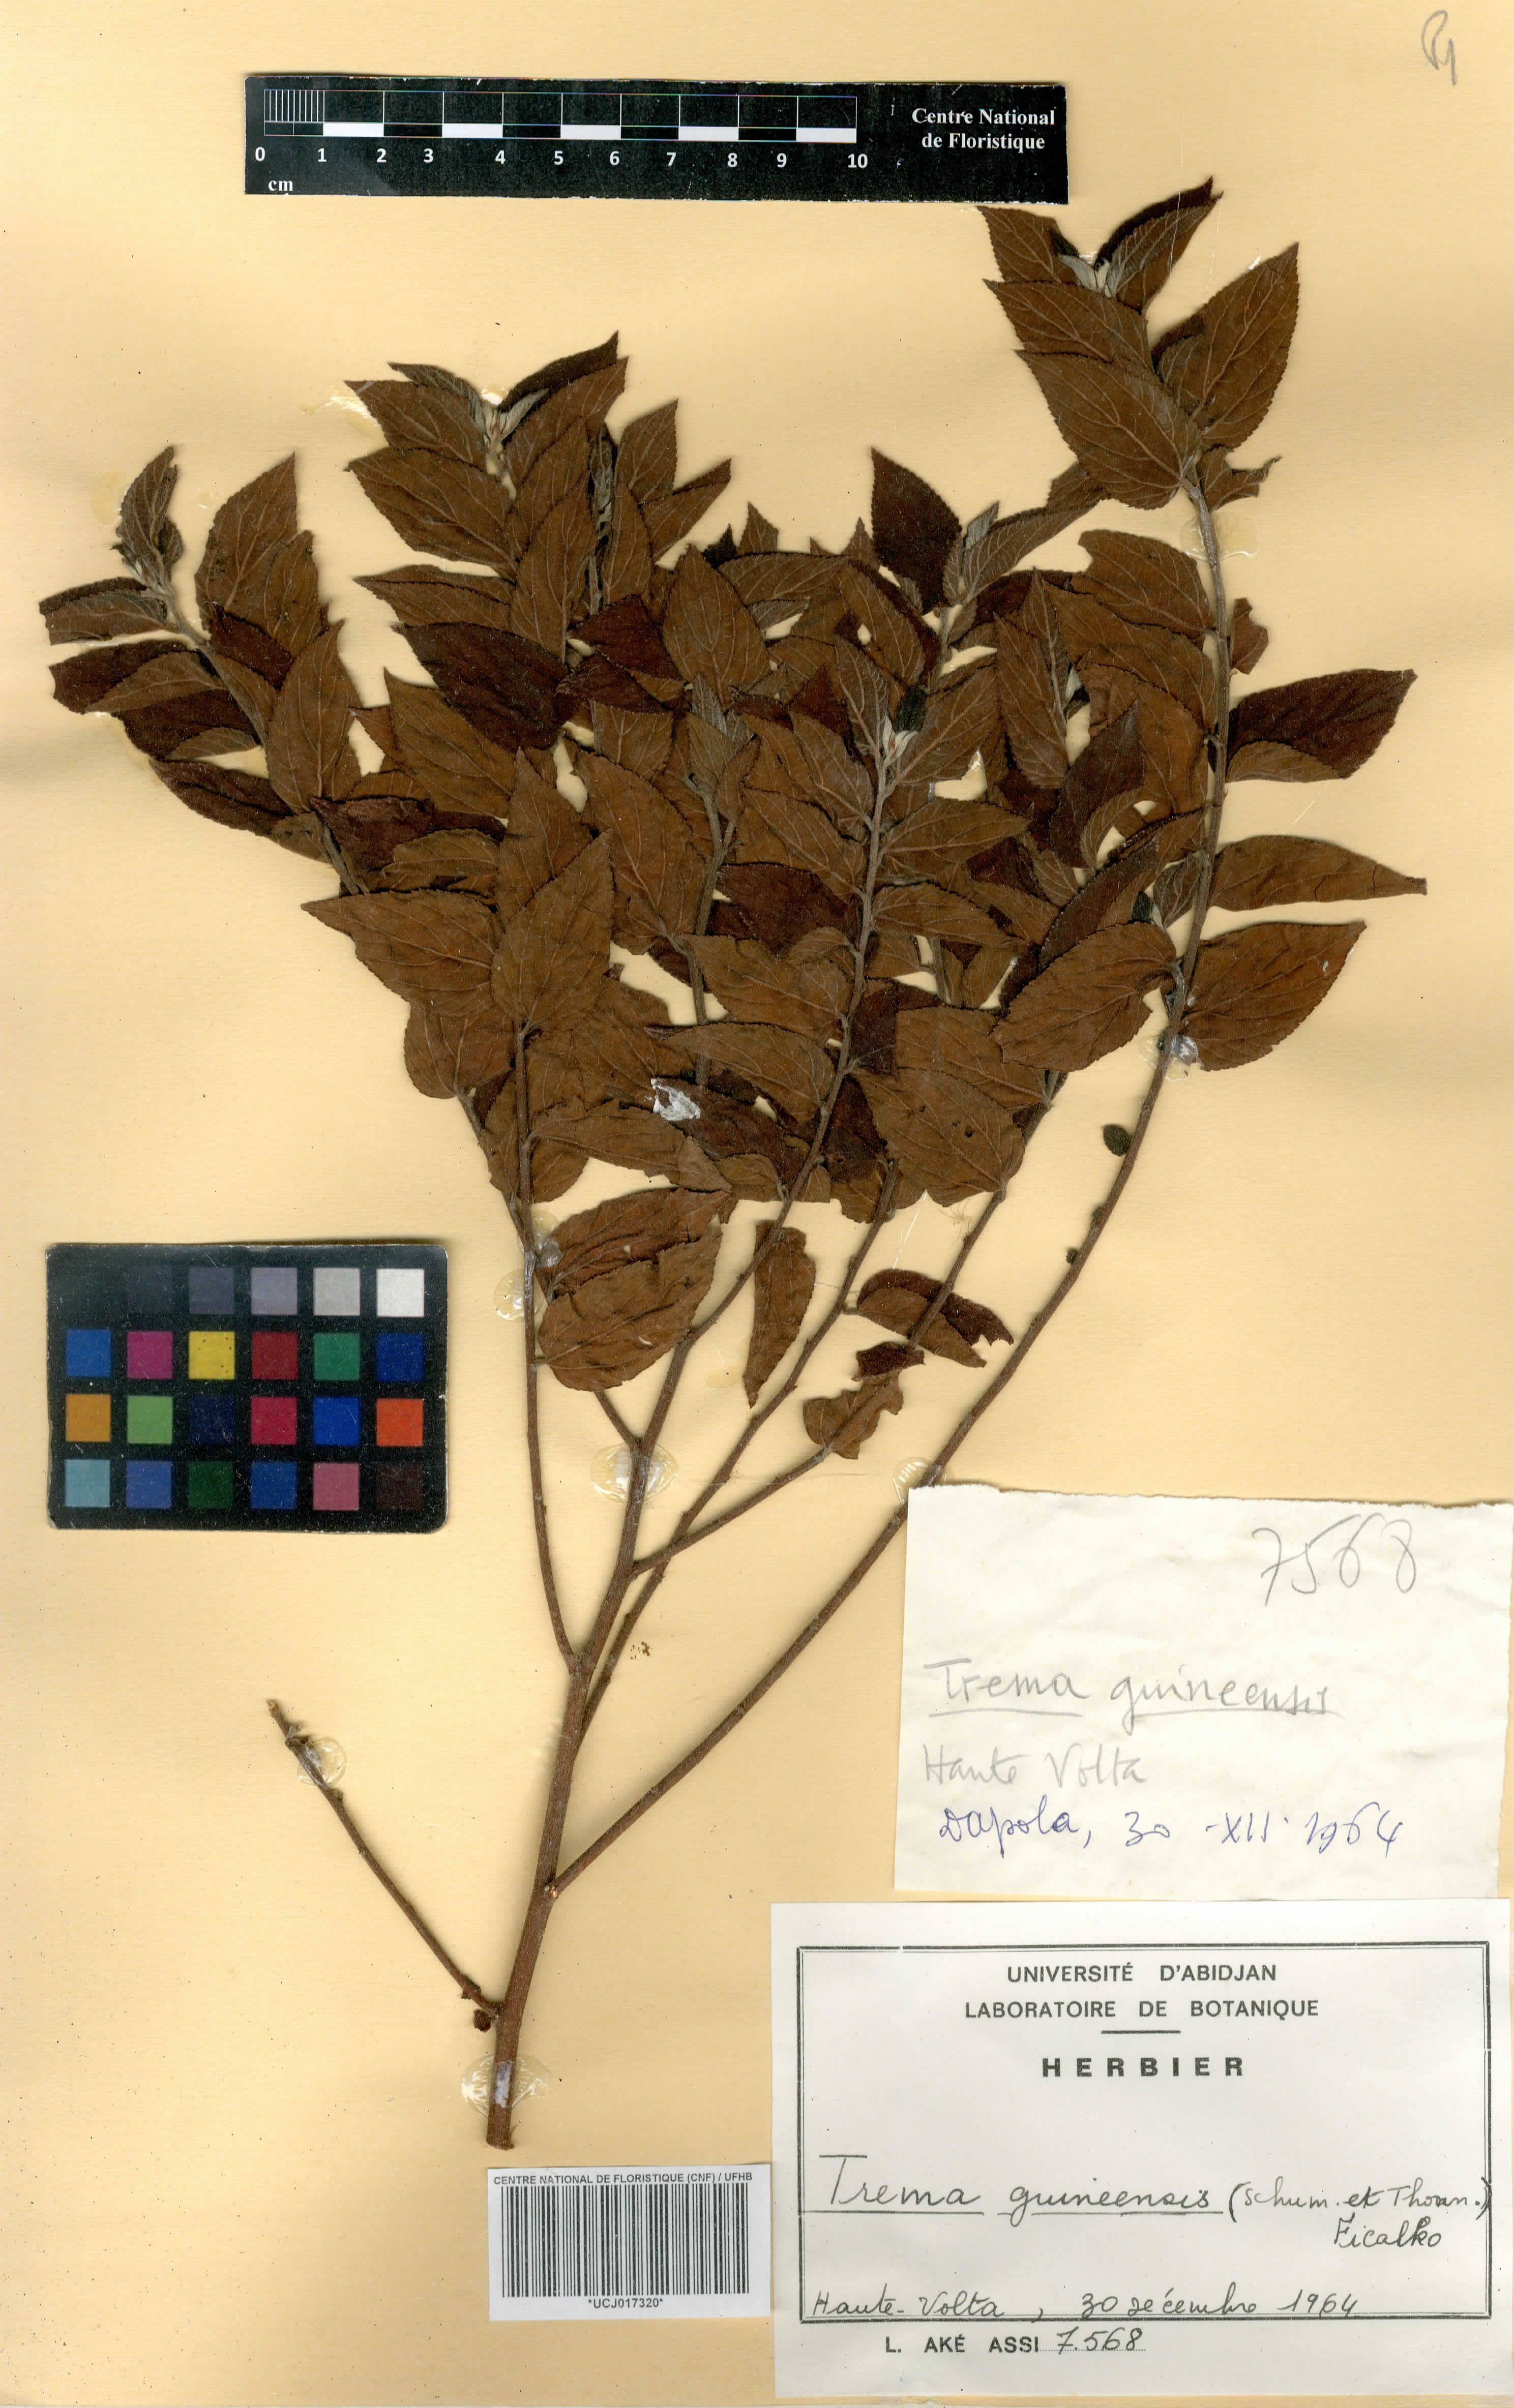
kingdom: Plantae
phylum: Tracheophyta
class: Magnoliopsida
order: Rosales
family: Cannabaceae
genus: Trema
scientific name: Trema orientale
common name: Indian charcoal tree
